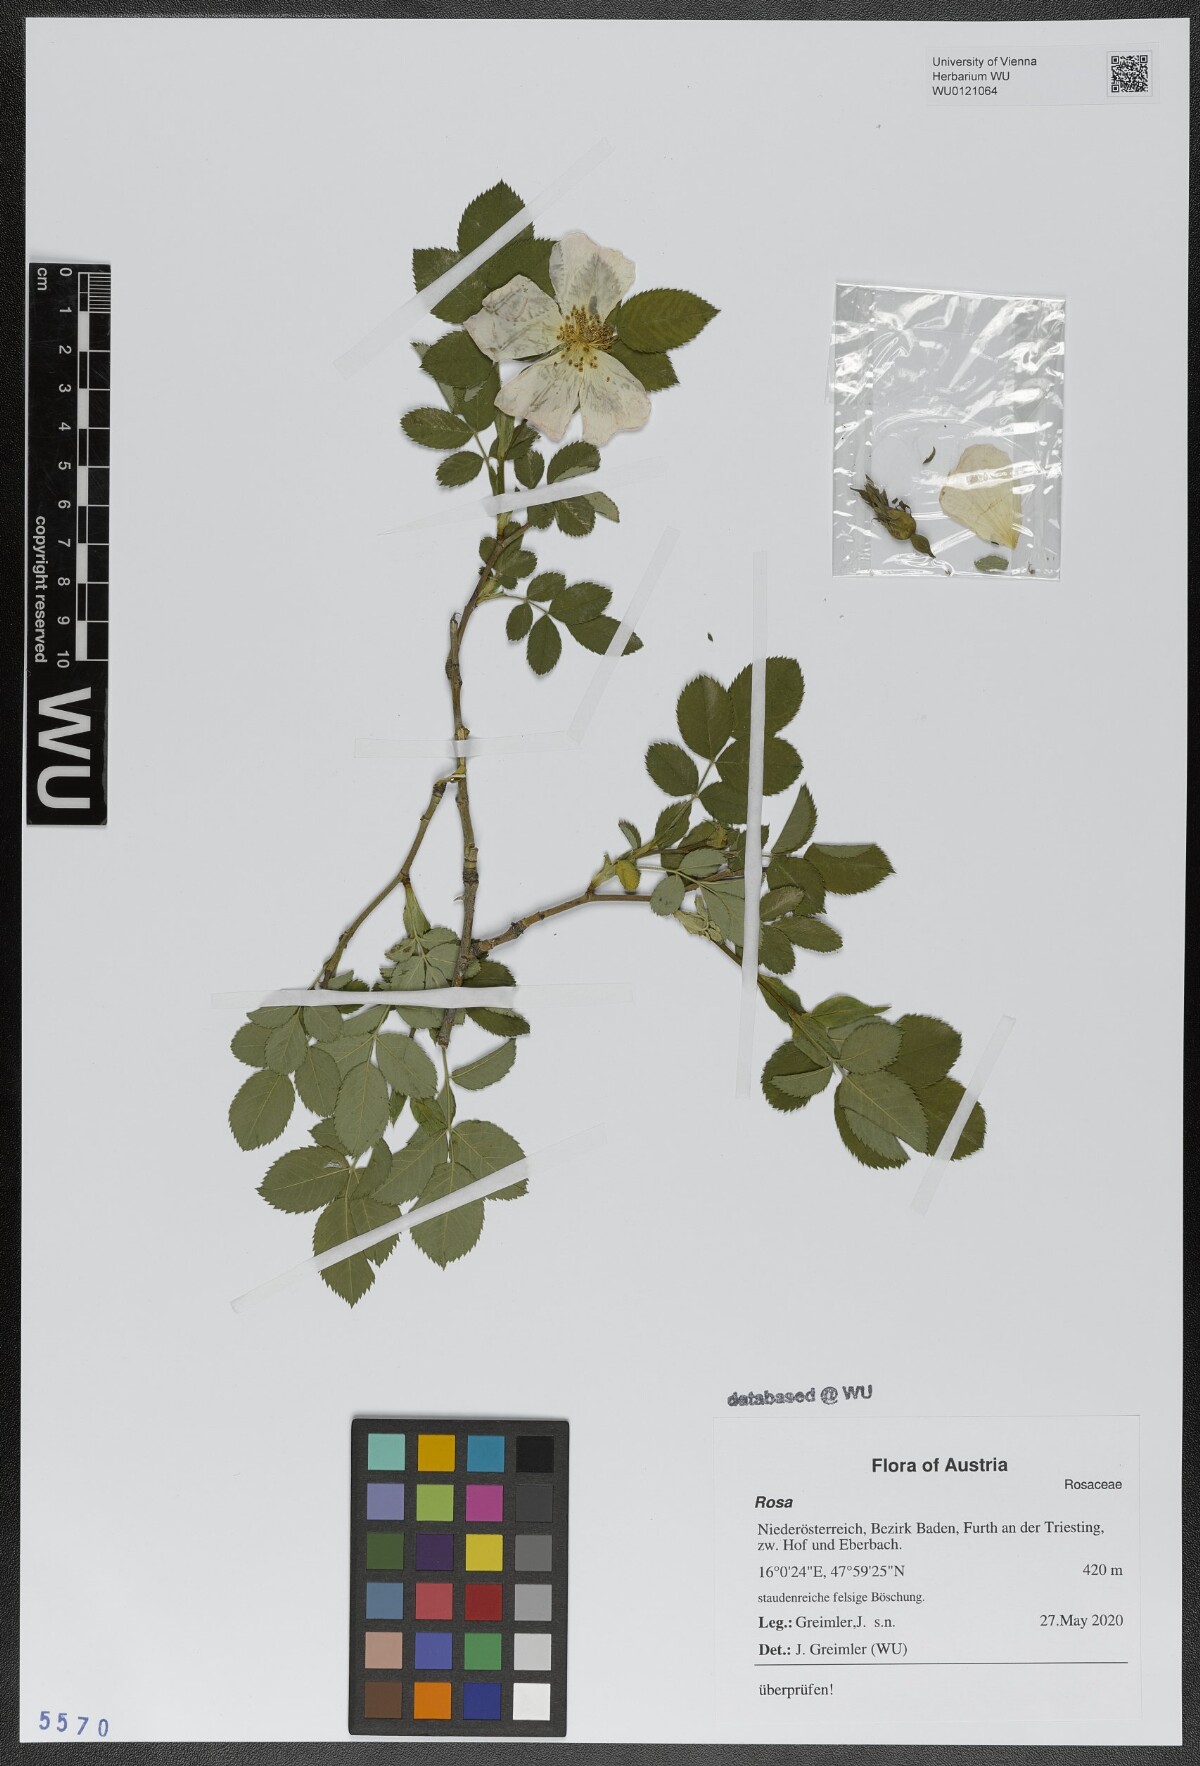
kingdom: Plantae
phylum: Tracheophyta
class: Magnoliopsida
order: Rosales
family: Rosaceae
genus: Rosa
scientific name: Rosa
